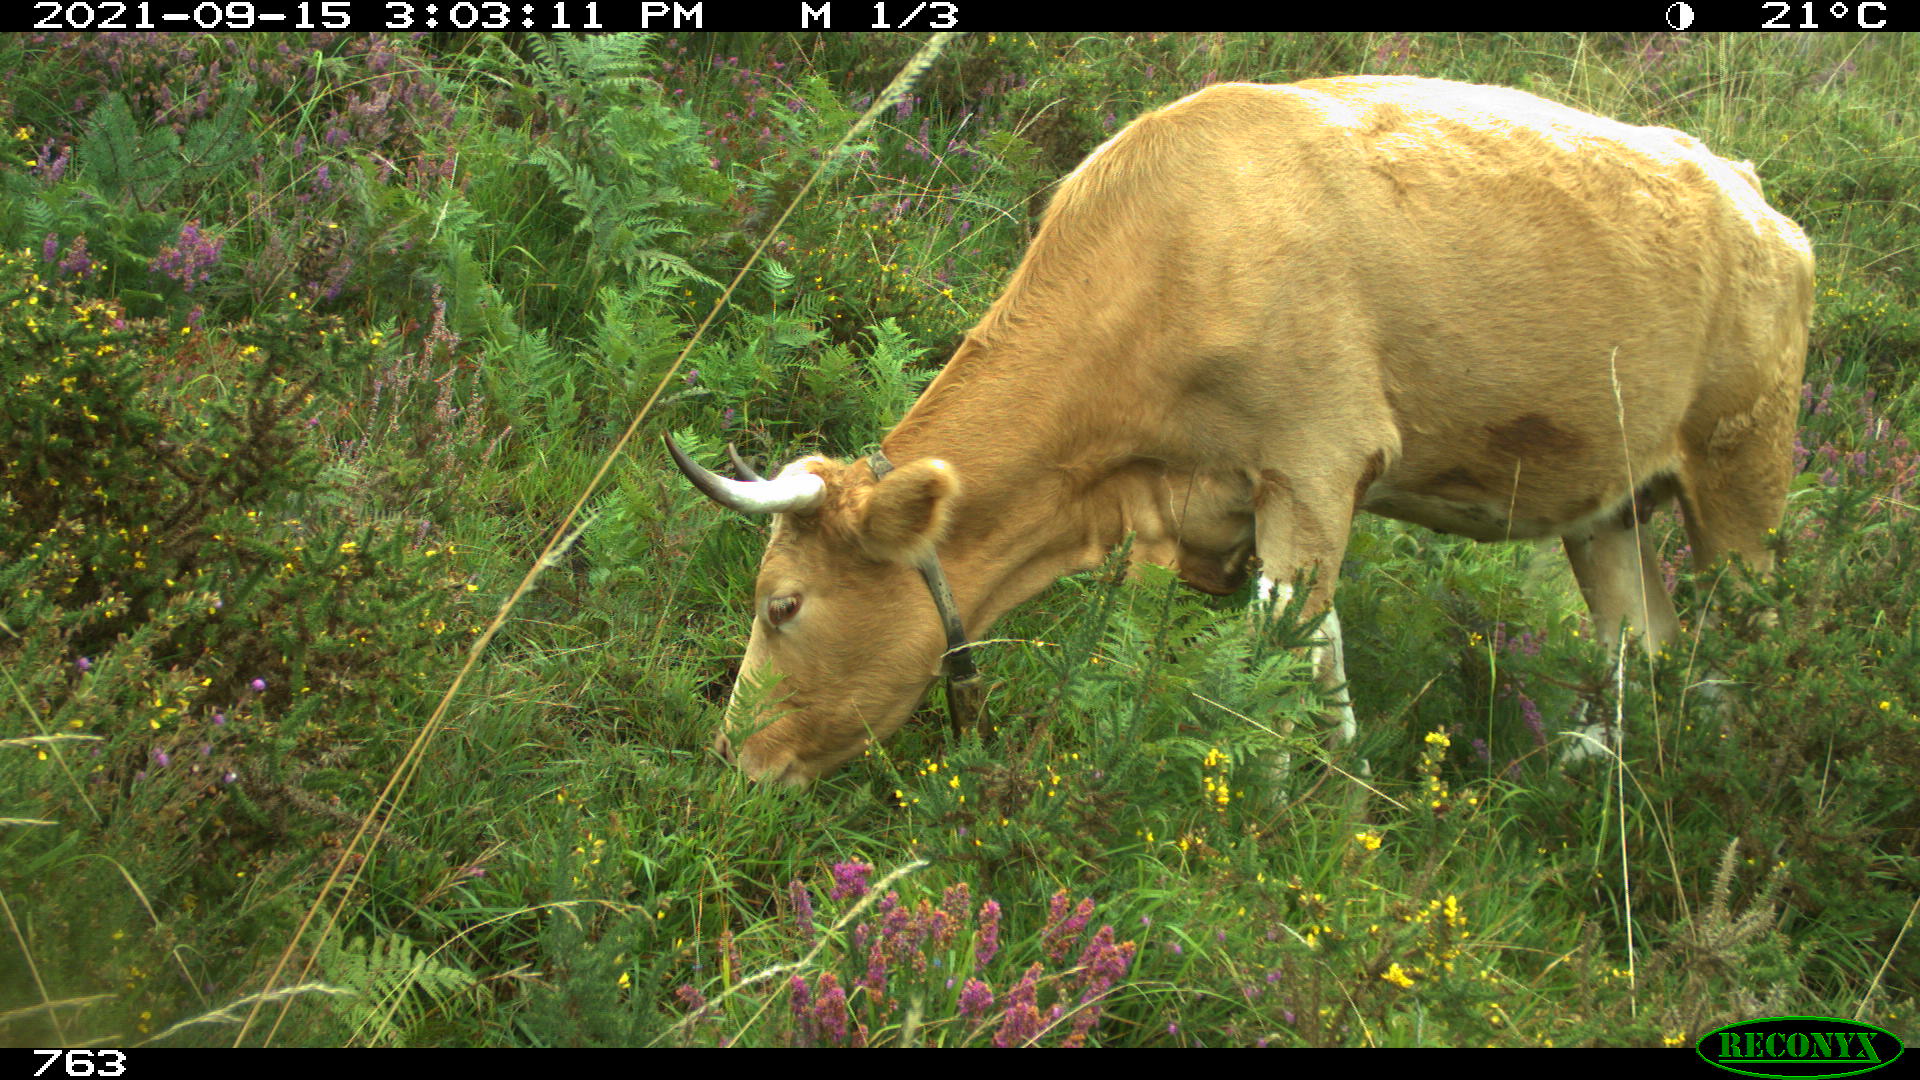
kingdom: Animalia
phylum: Chordata
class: Mammalia
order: Artiodactyla
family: Bovidae
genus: Bos
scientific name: Bos taurus
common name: Domesticated cattle
